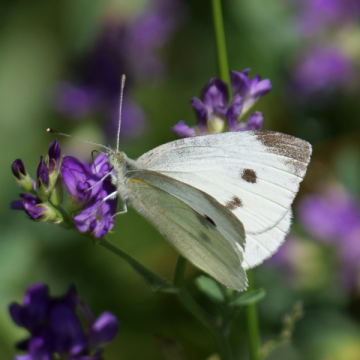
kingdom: Animalia
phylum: Arthropoda
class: Insecta
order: Lepidoptera
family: Pieridae
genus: Pieris
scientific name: Pieris rapae
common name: Cabbage White
